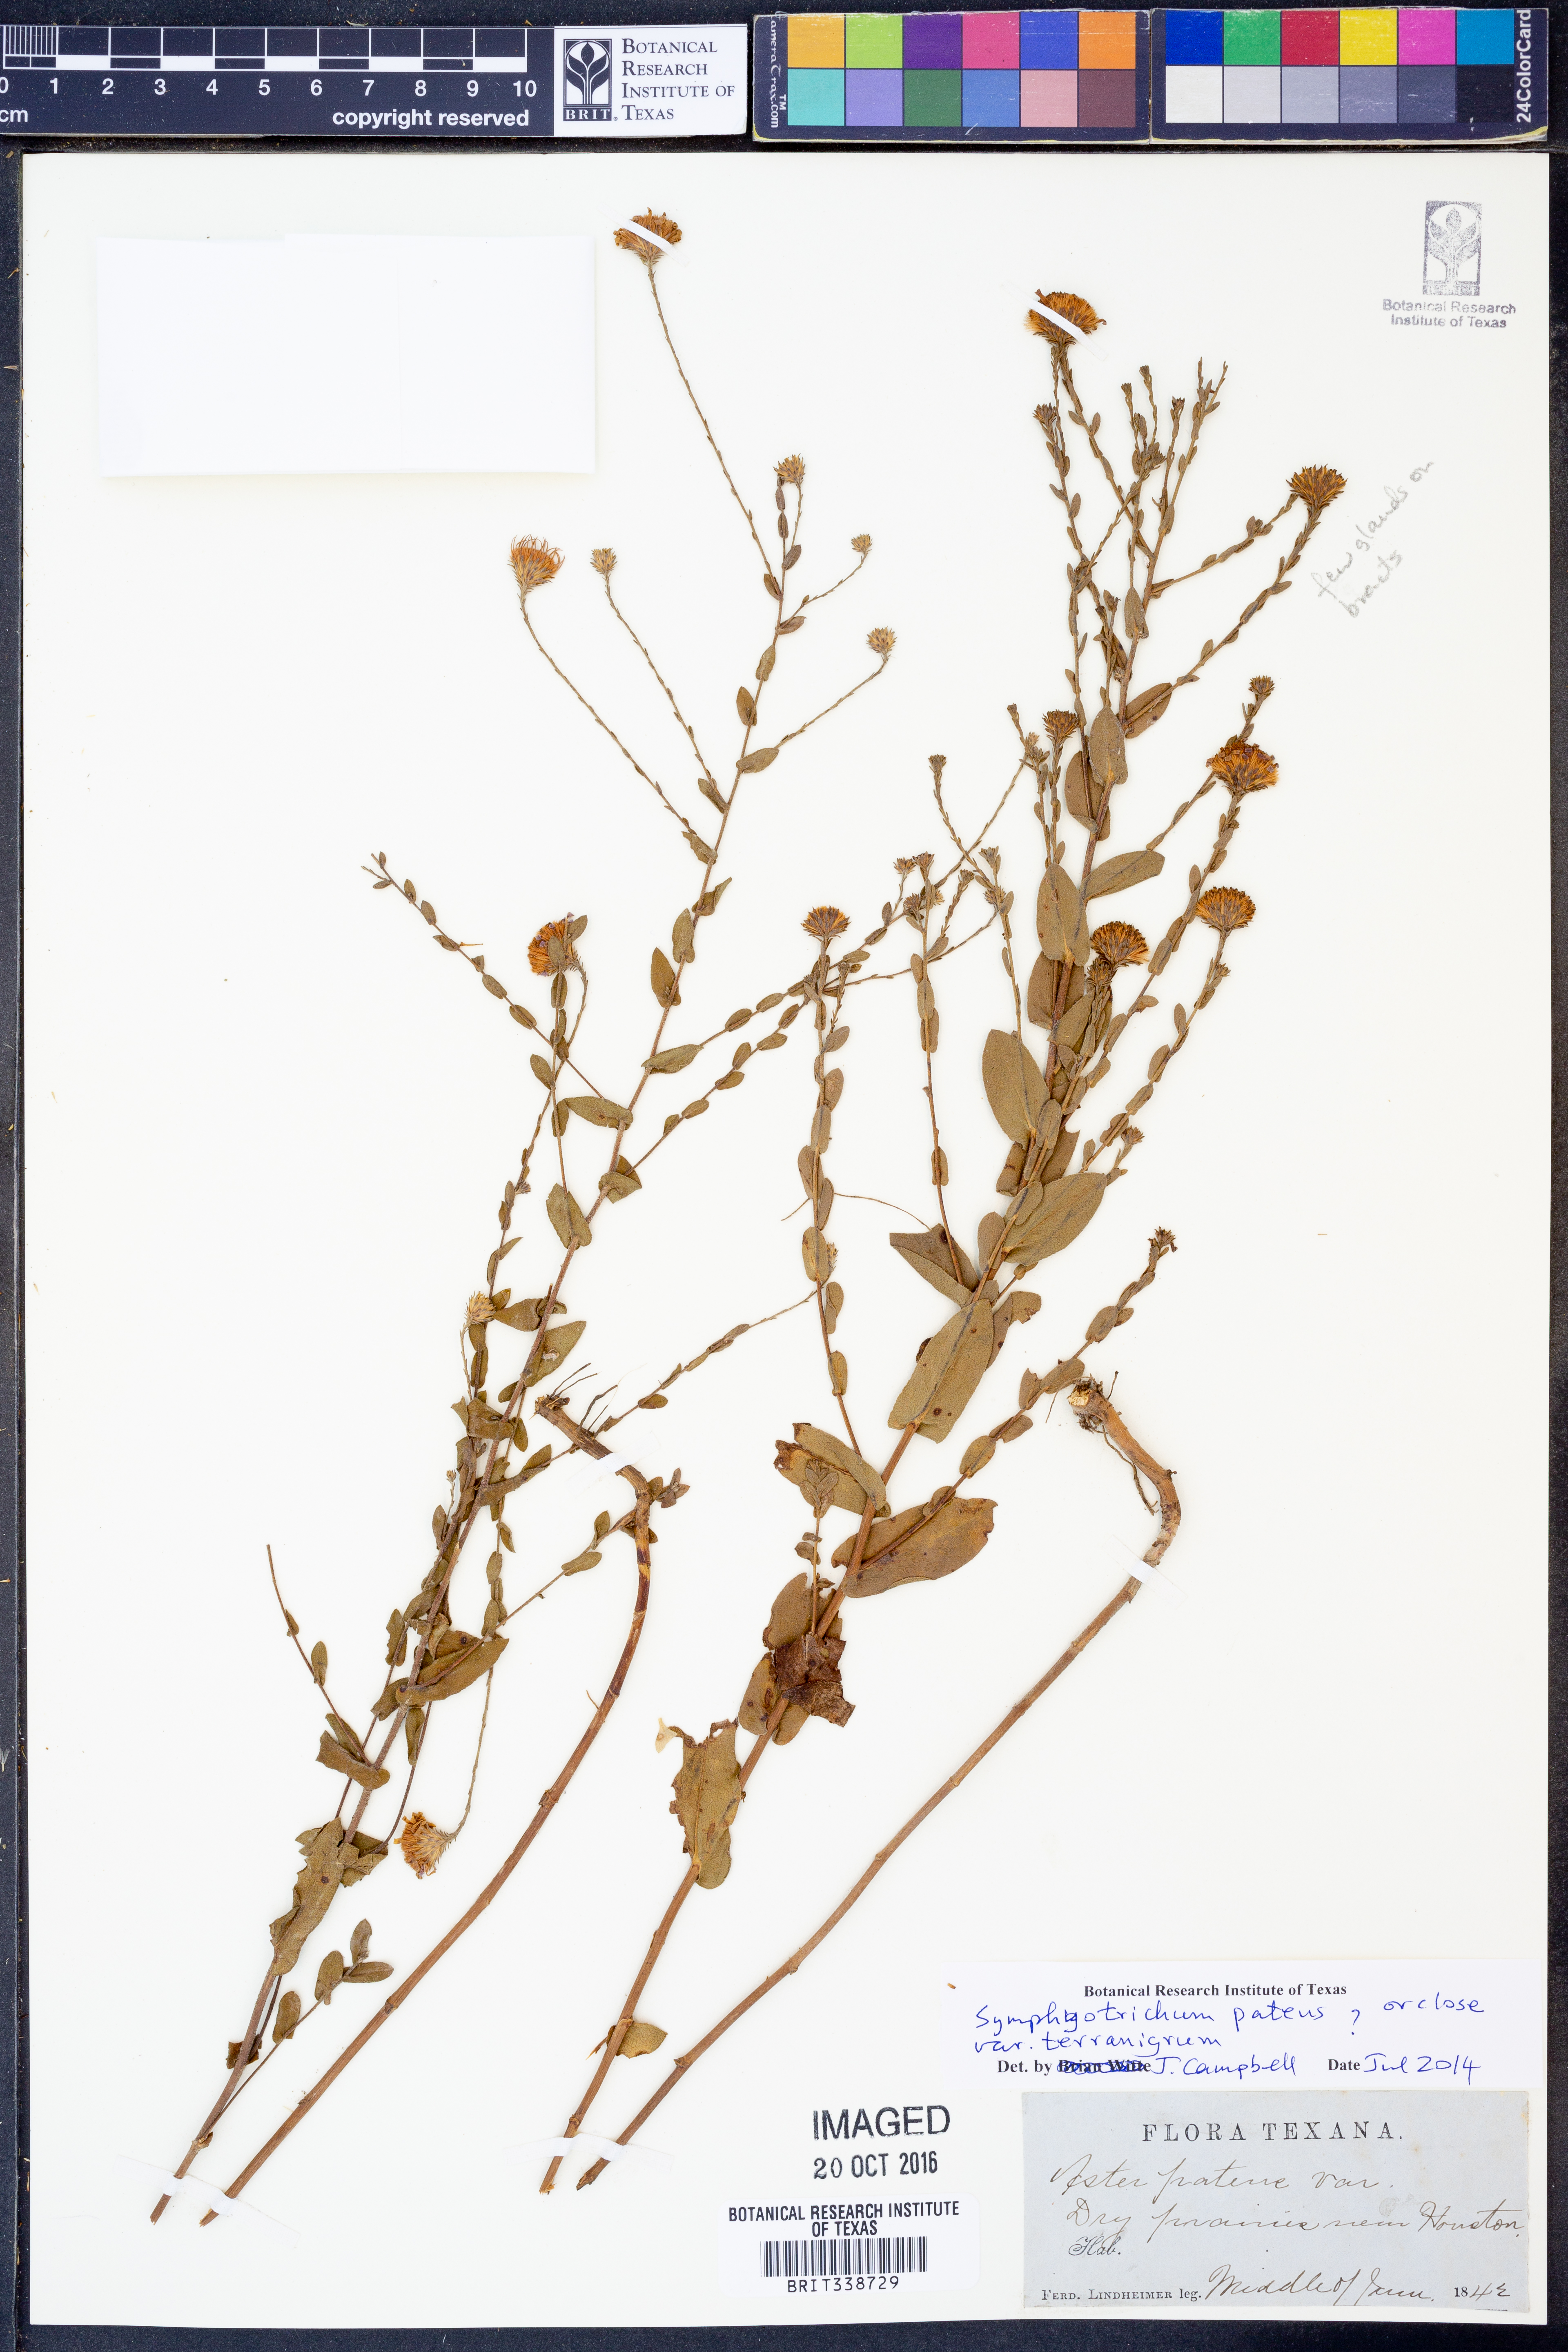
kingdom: Plantae
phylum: Tracheophyta
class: Magnoliopsida
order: Asterales
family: Asteraceae
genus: Symphyotrichum
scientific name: Symphyotrichum patens
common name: Late purple aster
